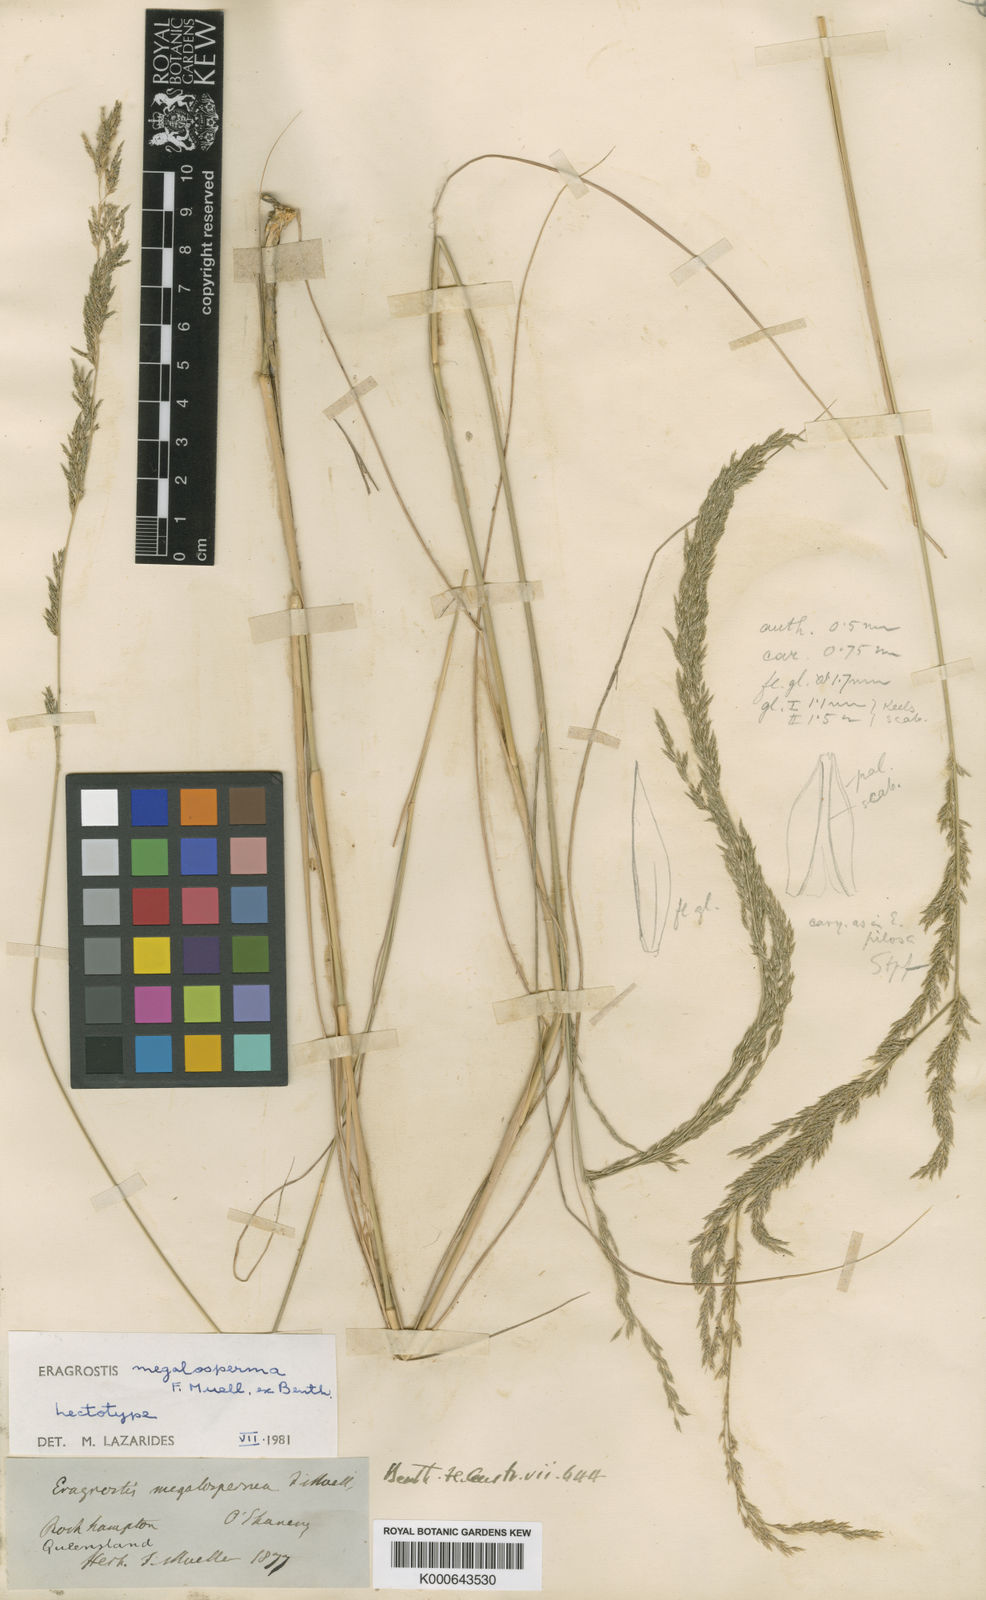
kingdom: Plantae
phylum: Tracheophyta
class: Liliopsida
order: Poales
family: Poaceae
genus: Sporobolus
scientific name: Sporobolus megalospermus
